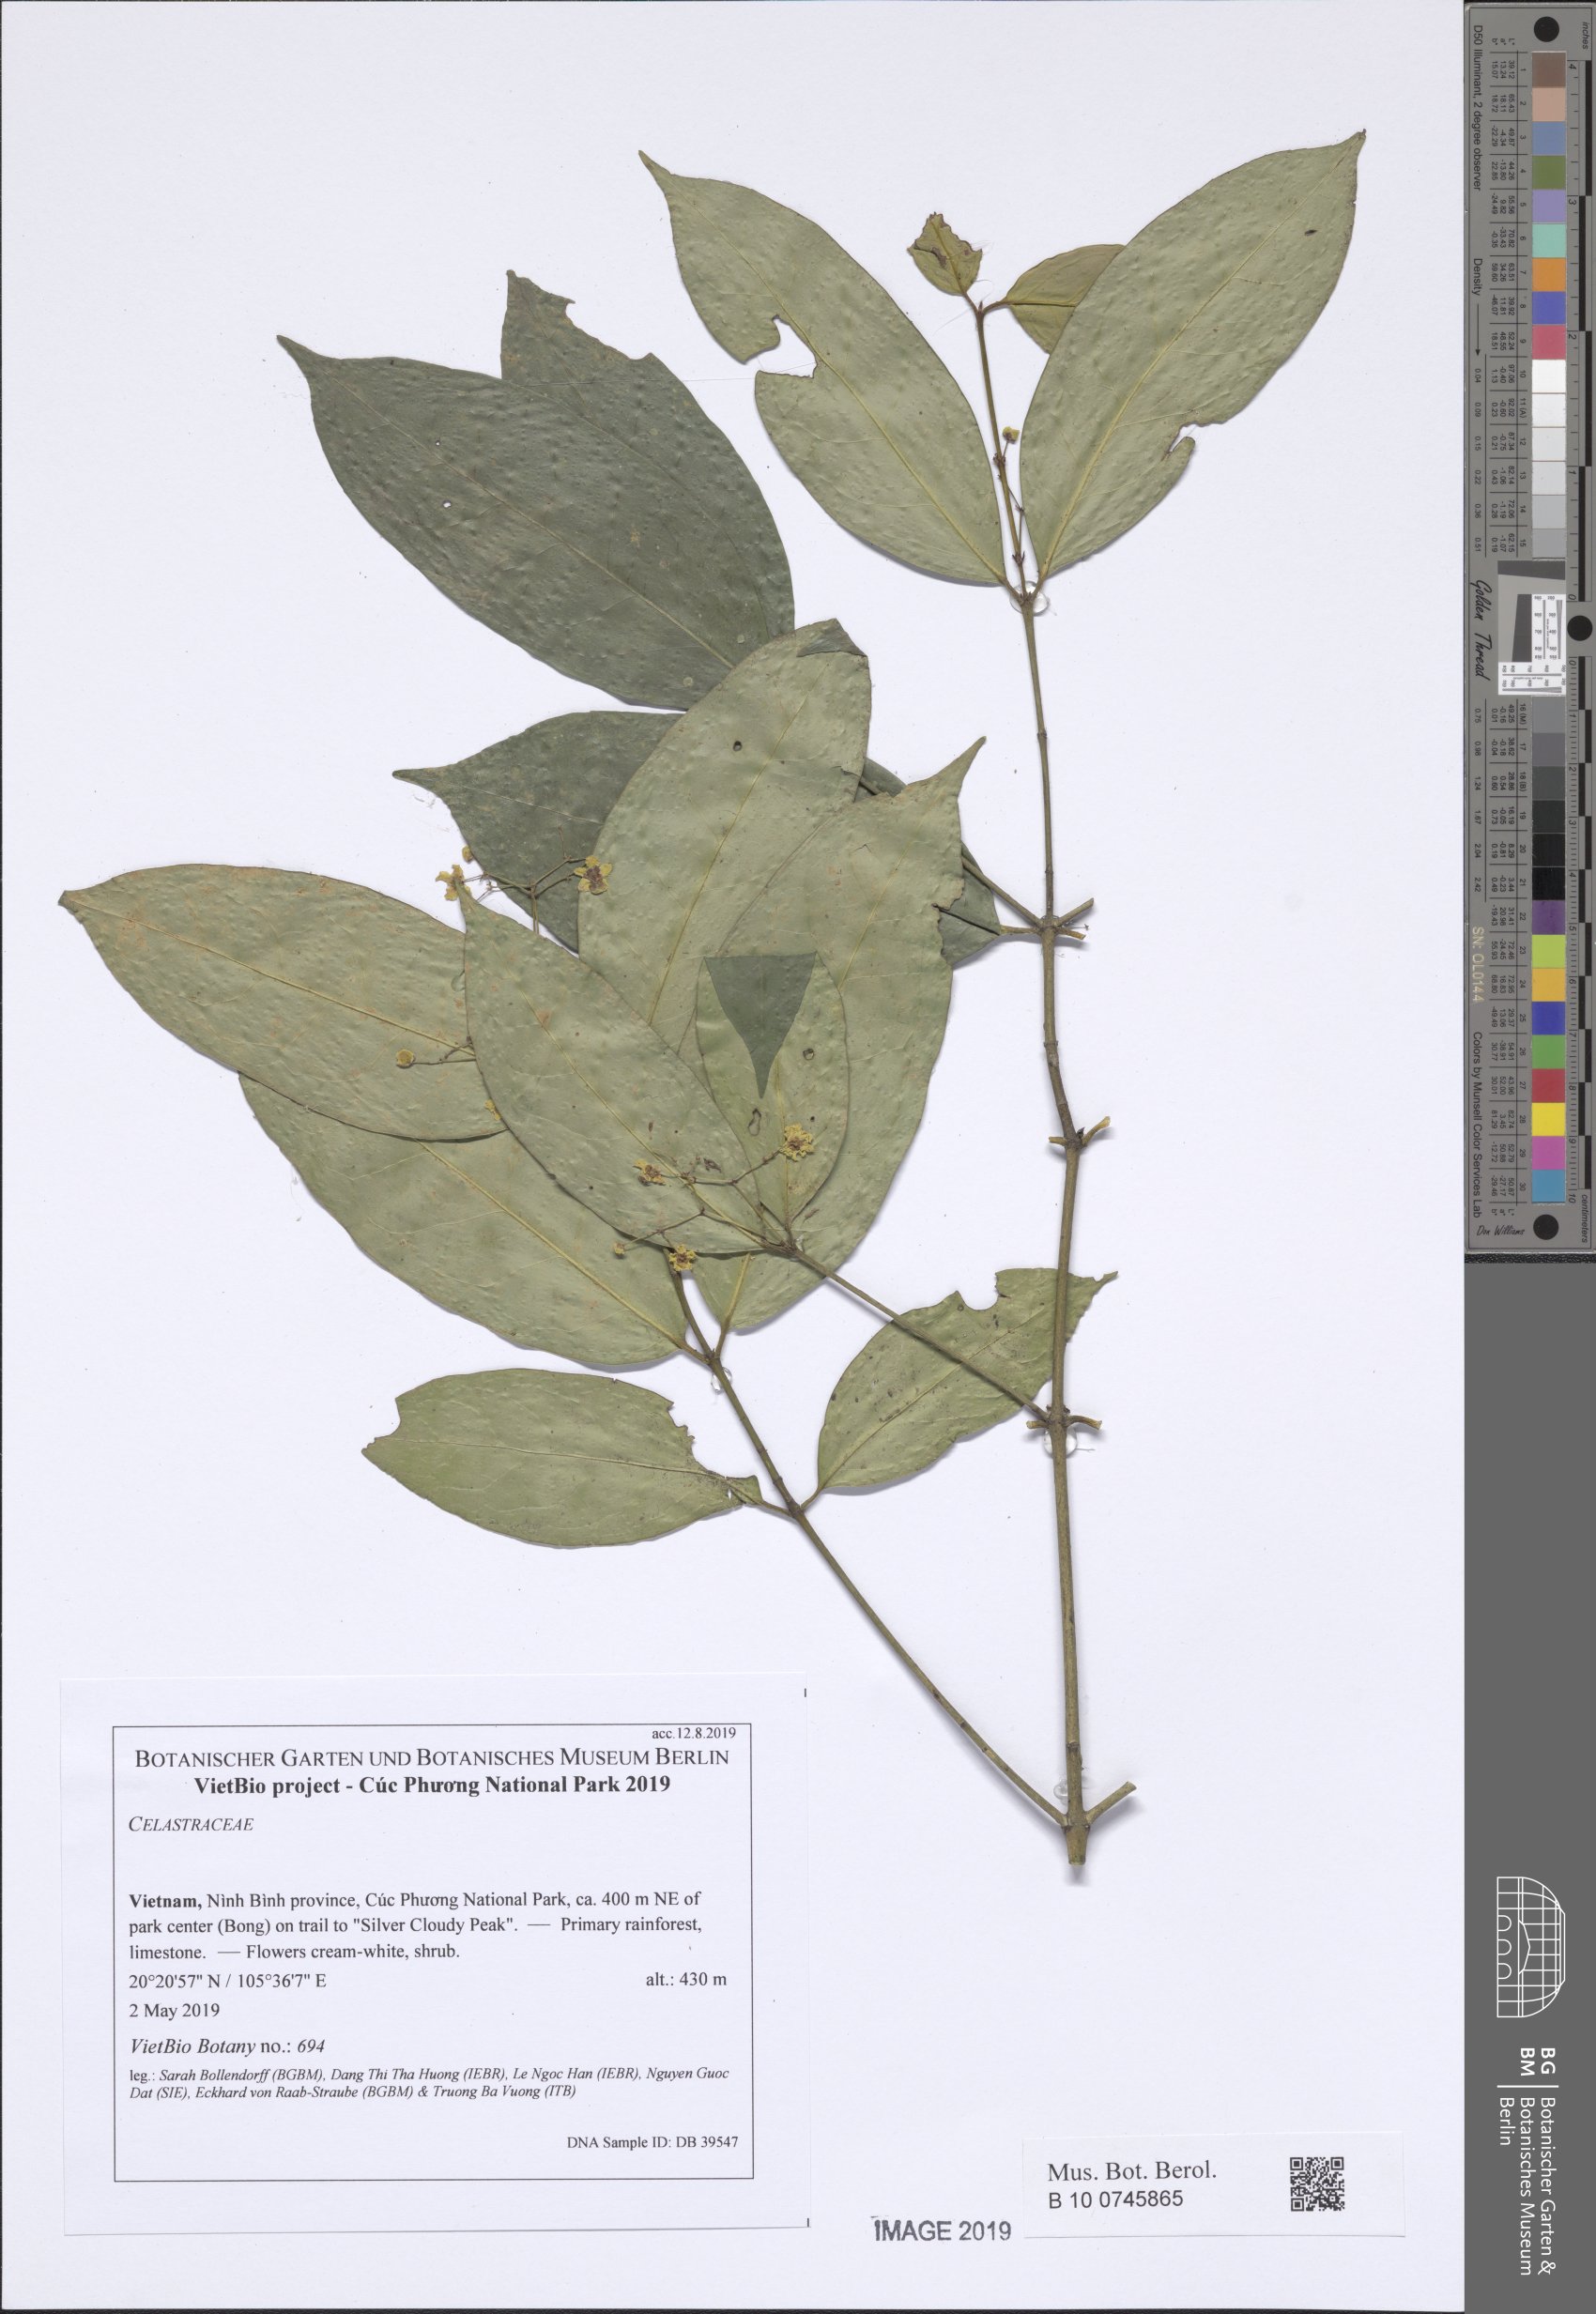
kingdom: Plantae
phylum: Tracheophyta
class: Magnoliopsida
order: Celastrales
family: Celastraceae
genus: Glyptopetalum
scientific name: Glyptopetalum
